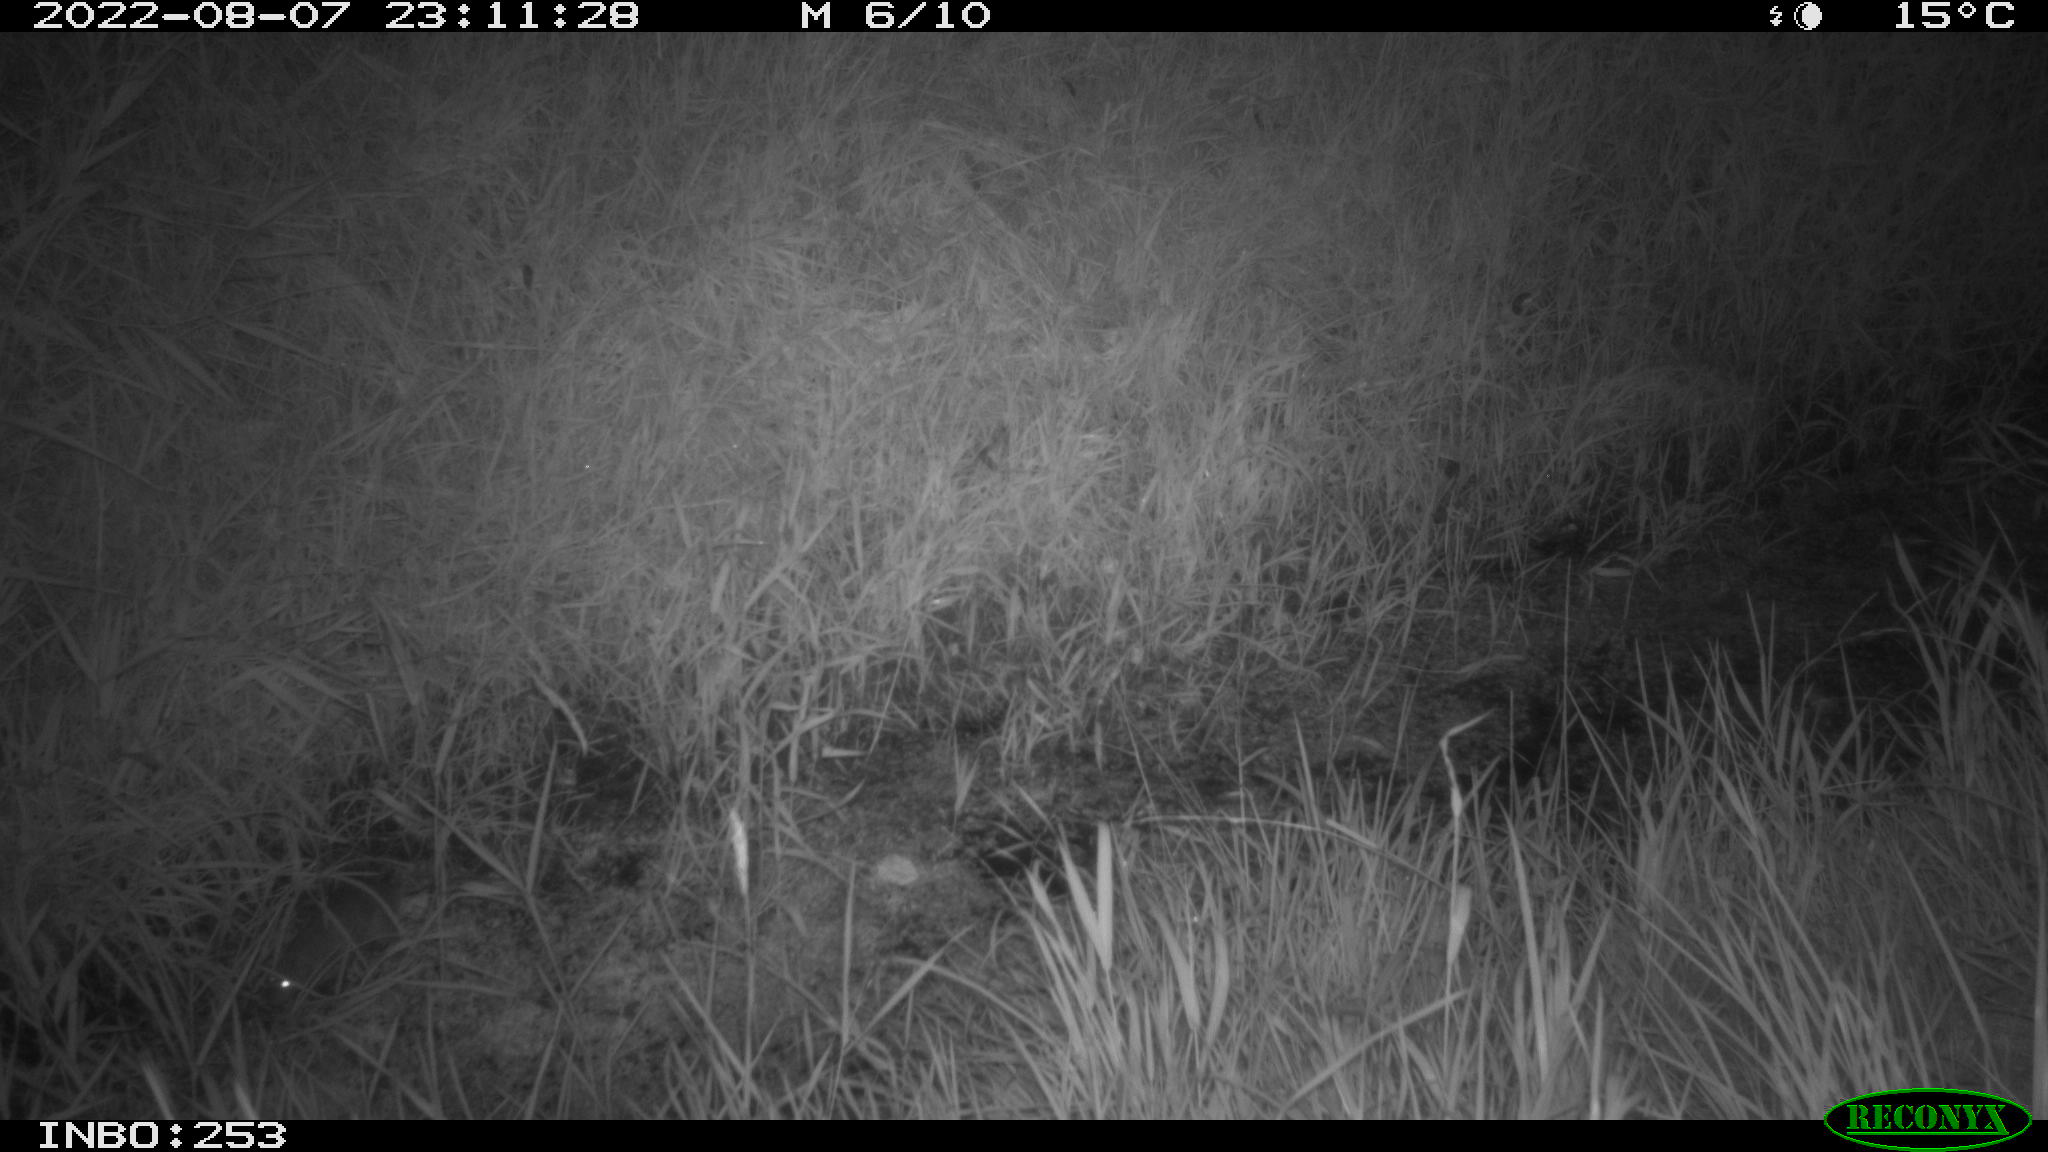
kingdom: Animalia
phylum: Chordata
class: Mammalia
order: Rodentia
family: Muridae
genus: Rattus
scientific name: Rattus norvegicus
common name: Brown rat
